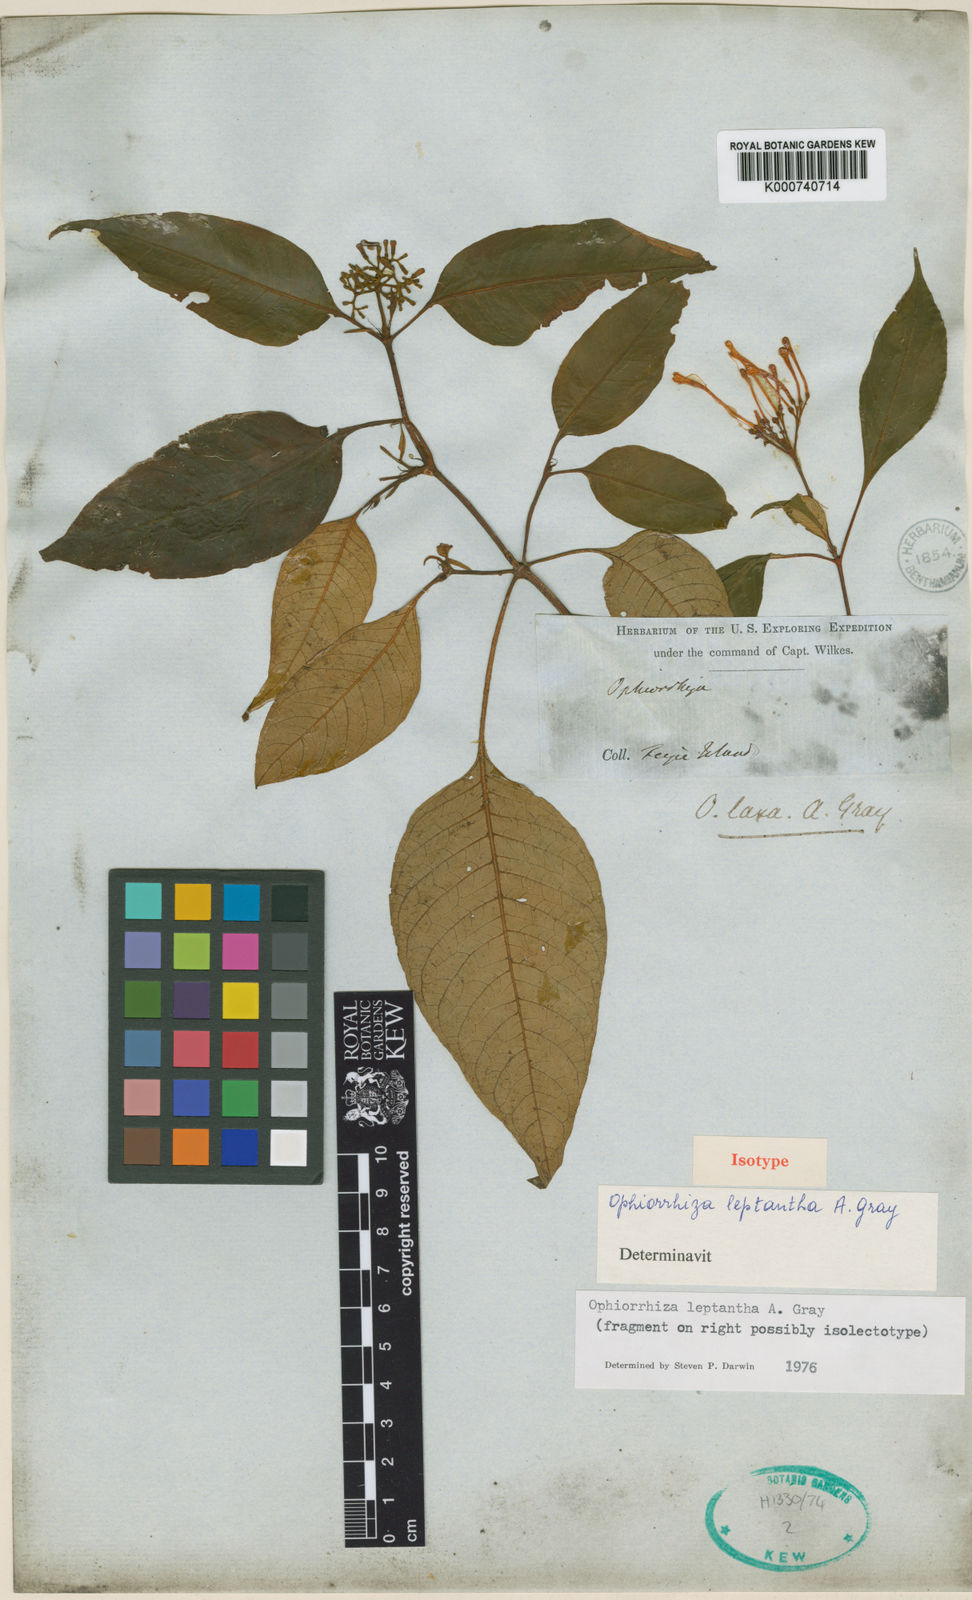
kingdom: Plantae
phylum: Tracheophyta
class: Magnoliopsida
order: Gentianales
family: Rubiaceae
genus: Ophiorrhiza
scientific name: Ophiorrhiza leptantha
